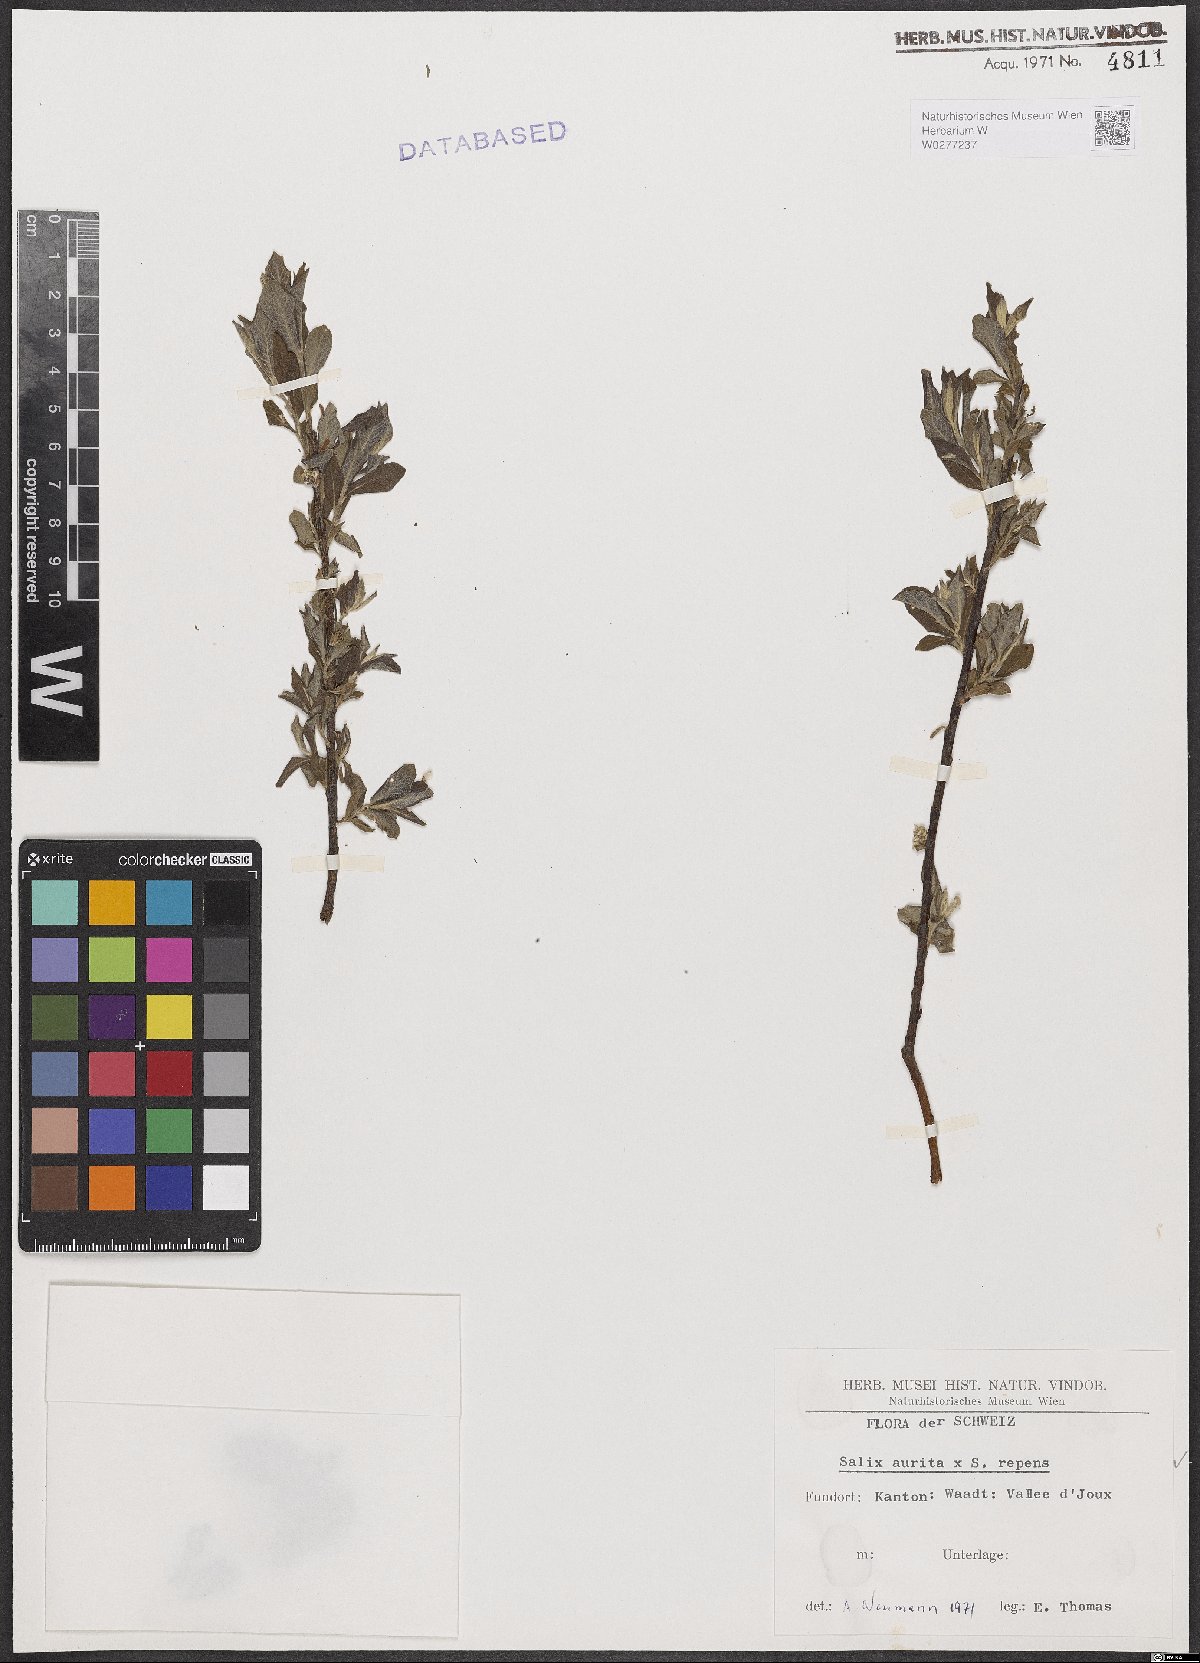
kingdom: Plantae
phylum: Tracheophyta
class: Magnoliopsida
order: Malpighiales
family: Salicaceae
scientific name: Salicaceae
